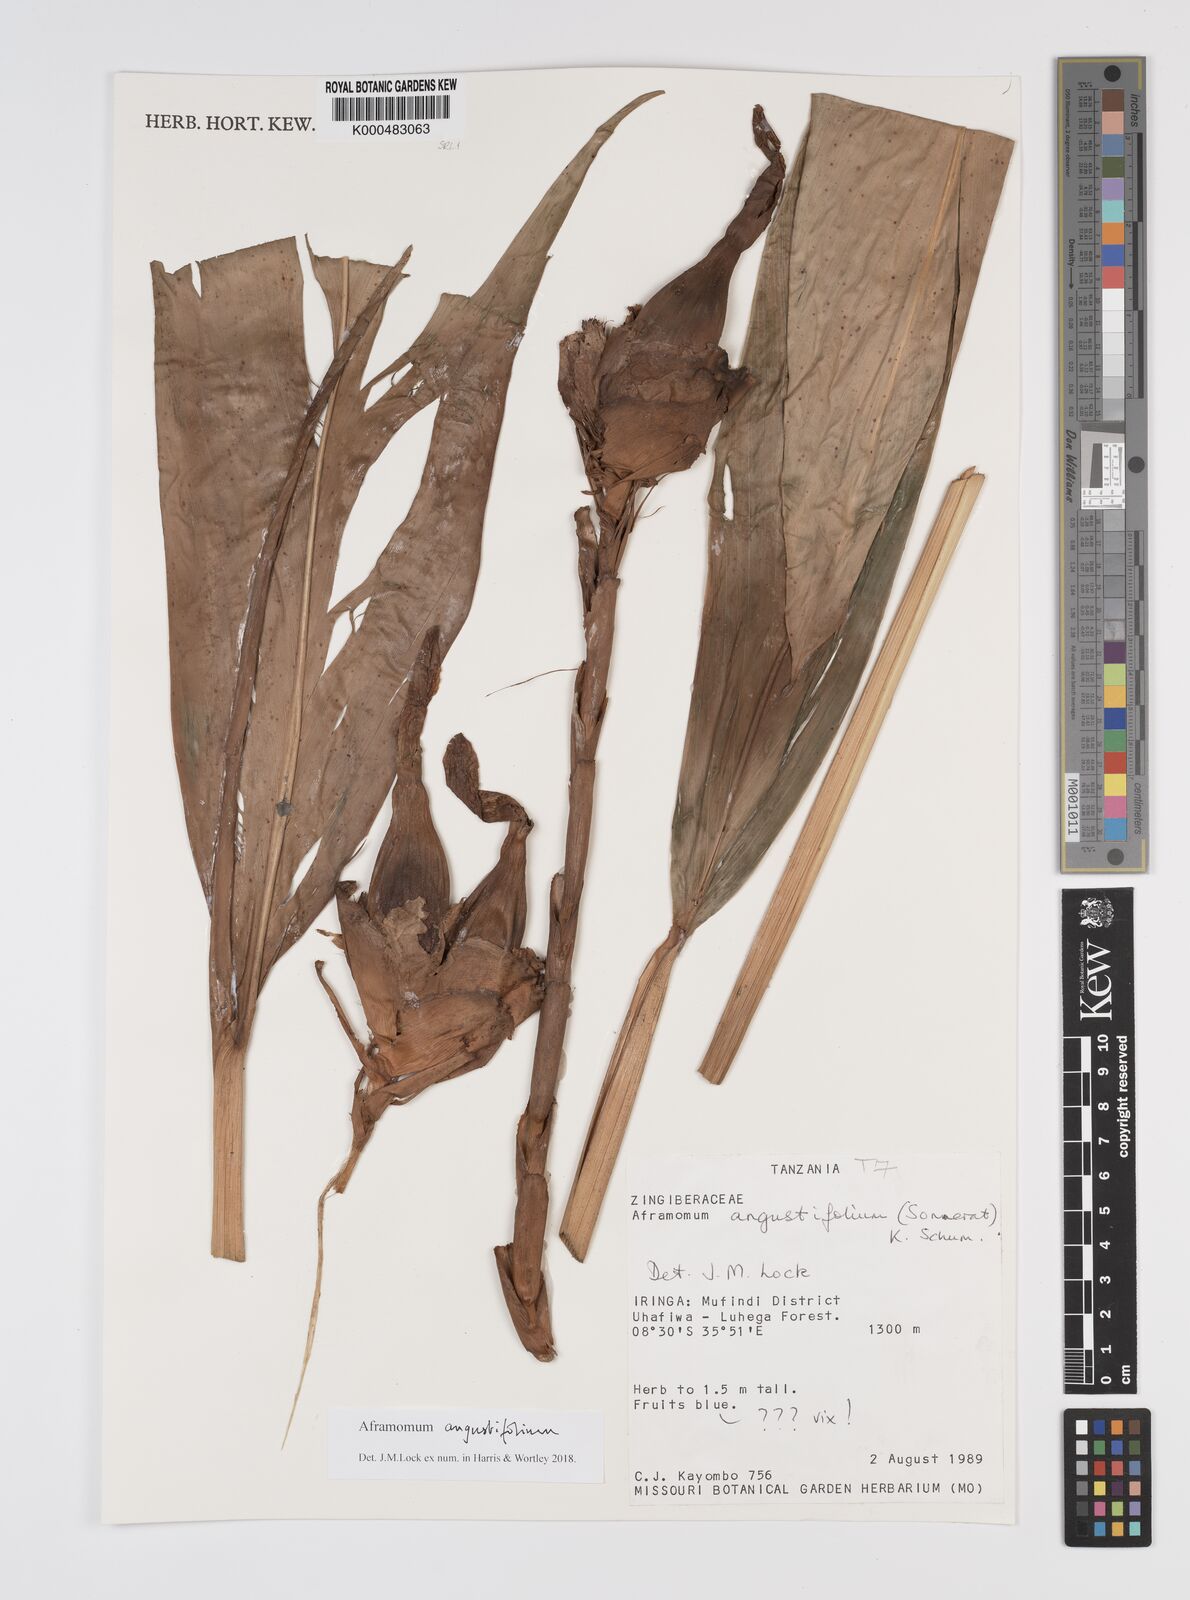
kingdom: Plantae
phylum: Tracheophyta
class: Liliopsida
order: Zingiberales
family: Zingiberaceae
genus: Aframomum
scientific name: Aframomum angustifolium
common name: Guinea grains
